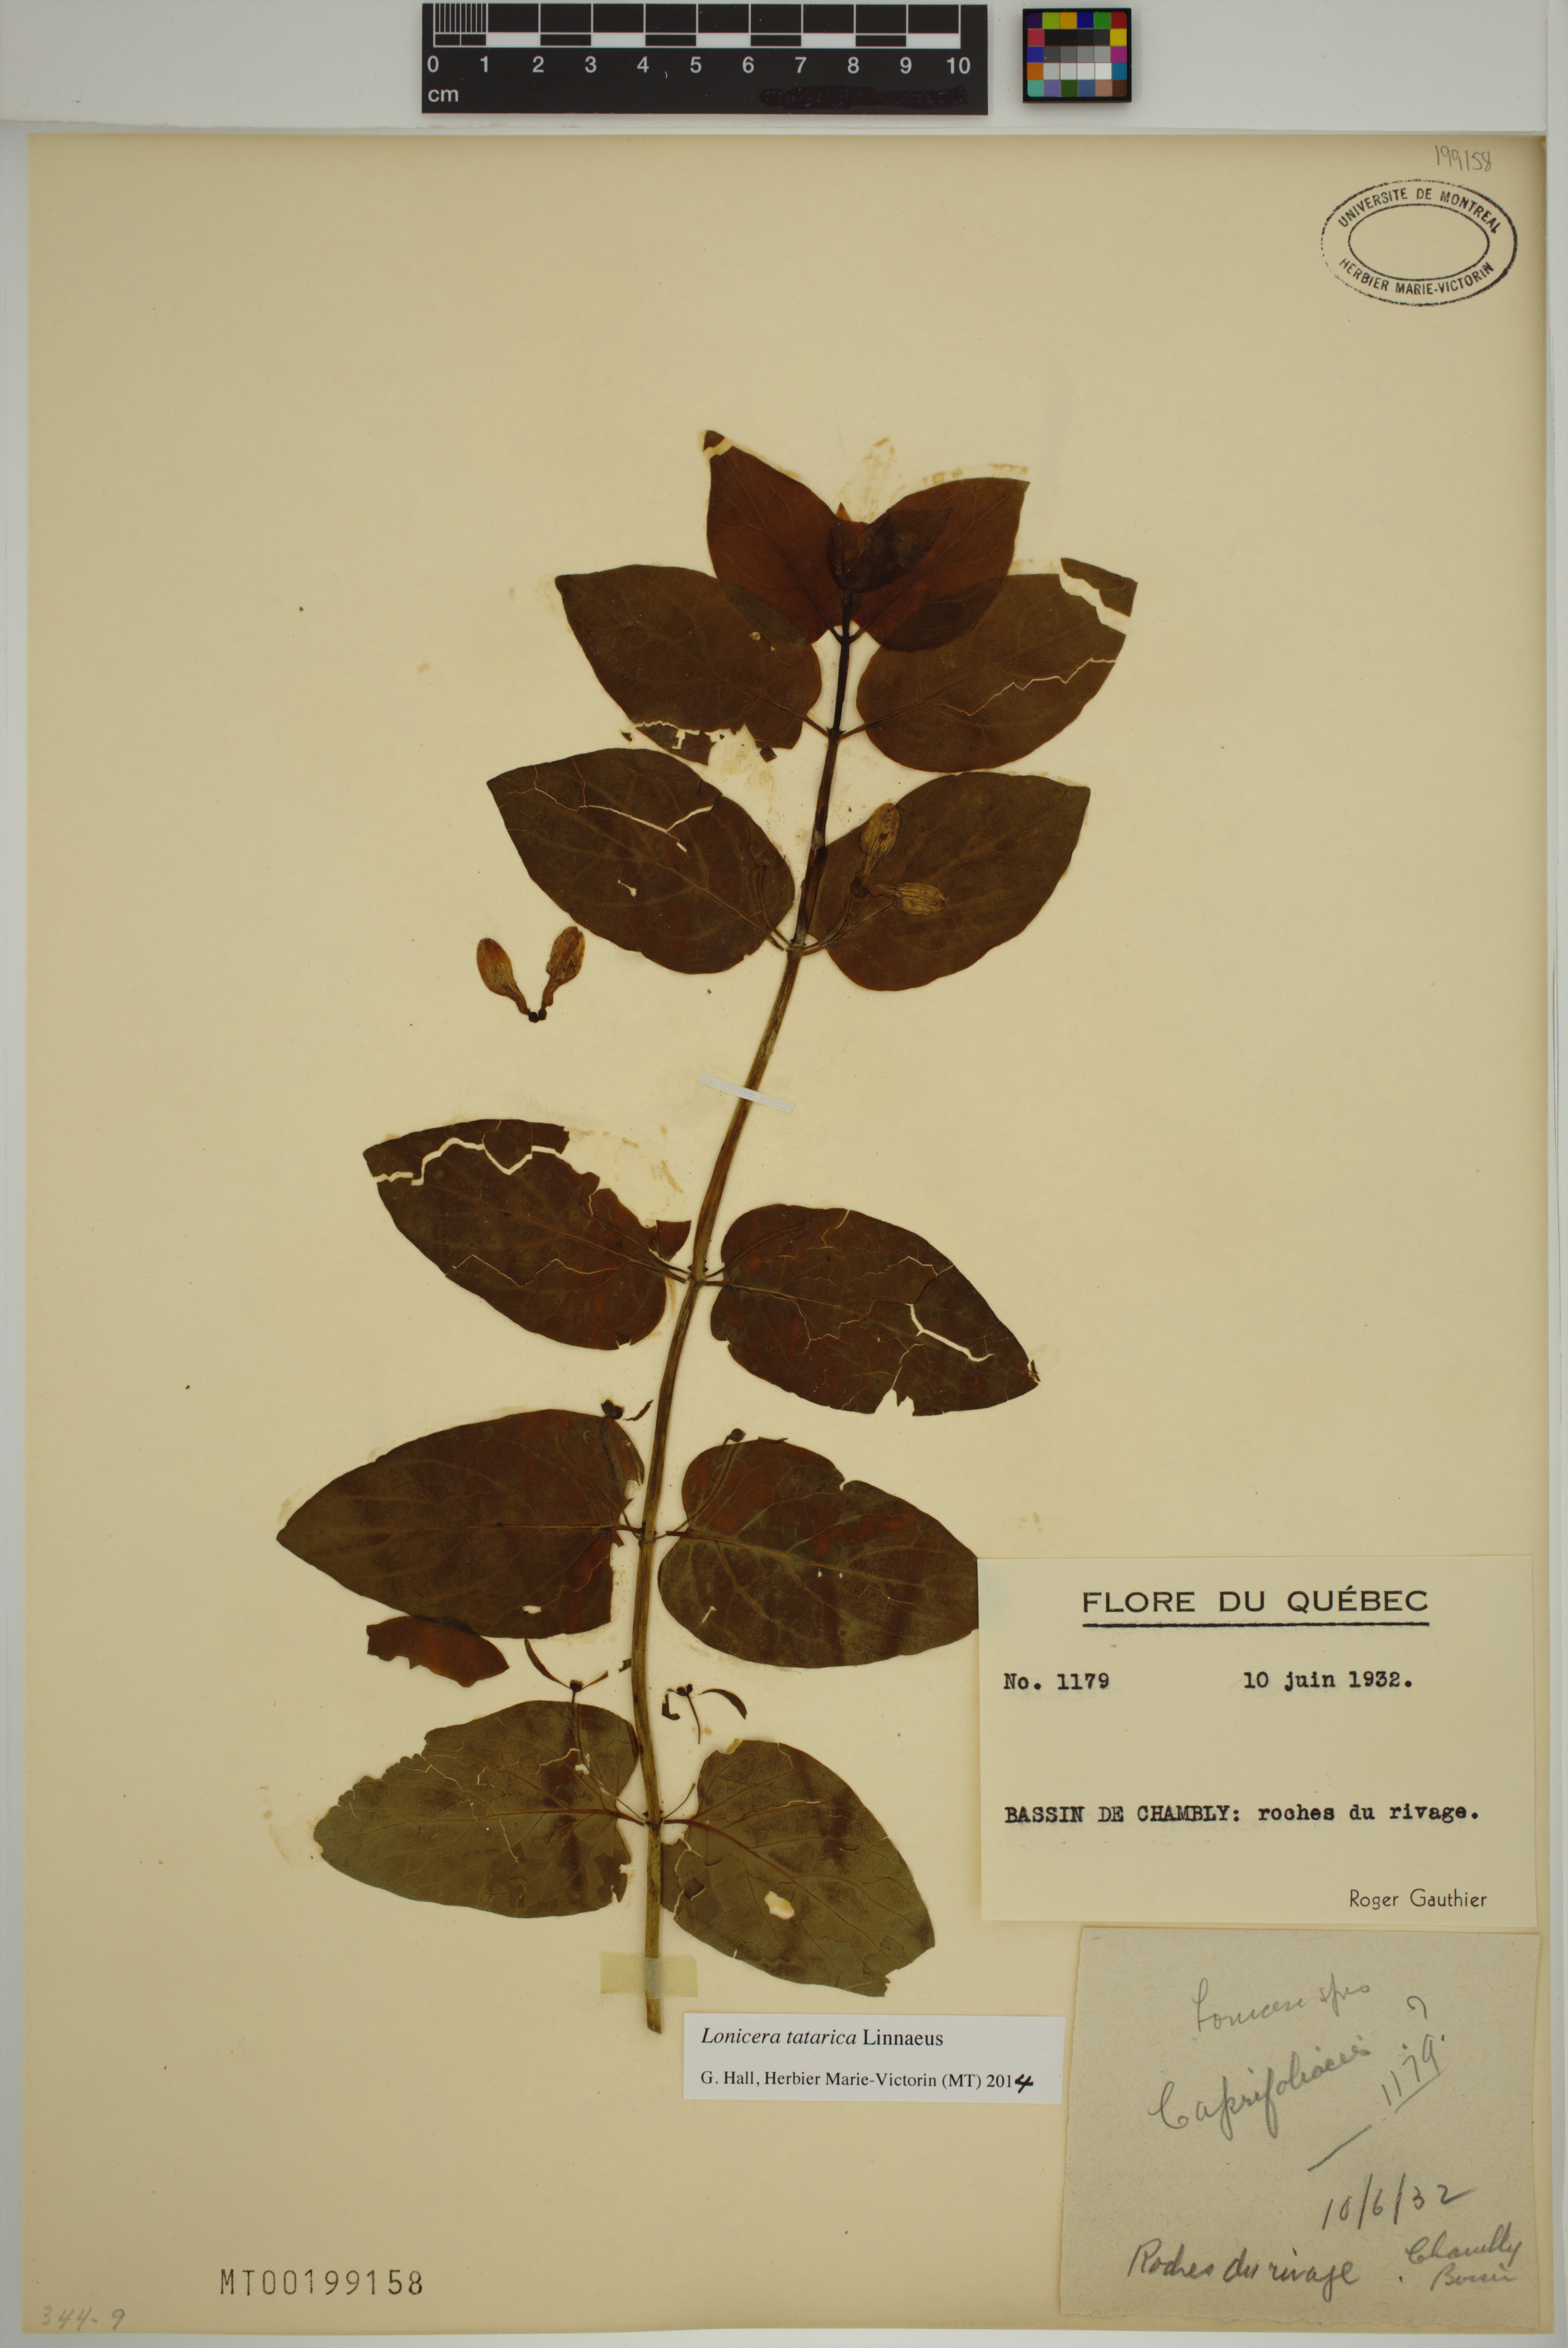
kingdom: Plantae
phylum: Tracheophyta
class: Magnoliopsida
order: Dipsacales
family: Caprifoliaceae
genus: Lonicera
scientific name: Lonicera tatarica
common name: Tatarian honeysuckle
